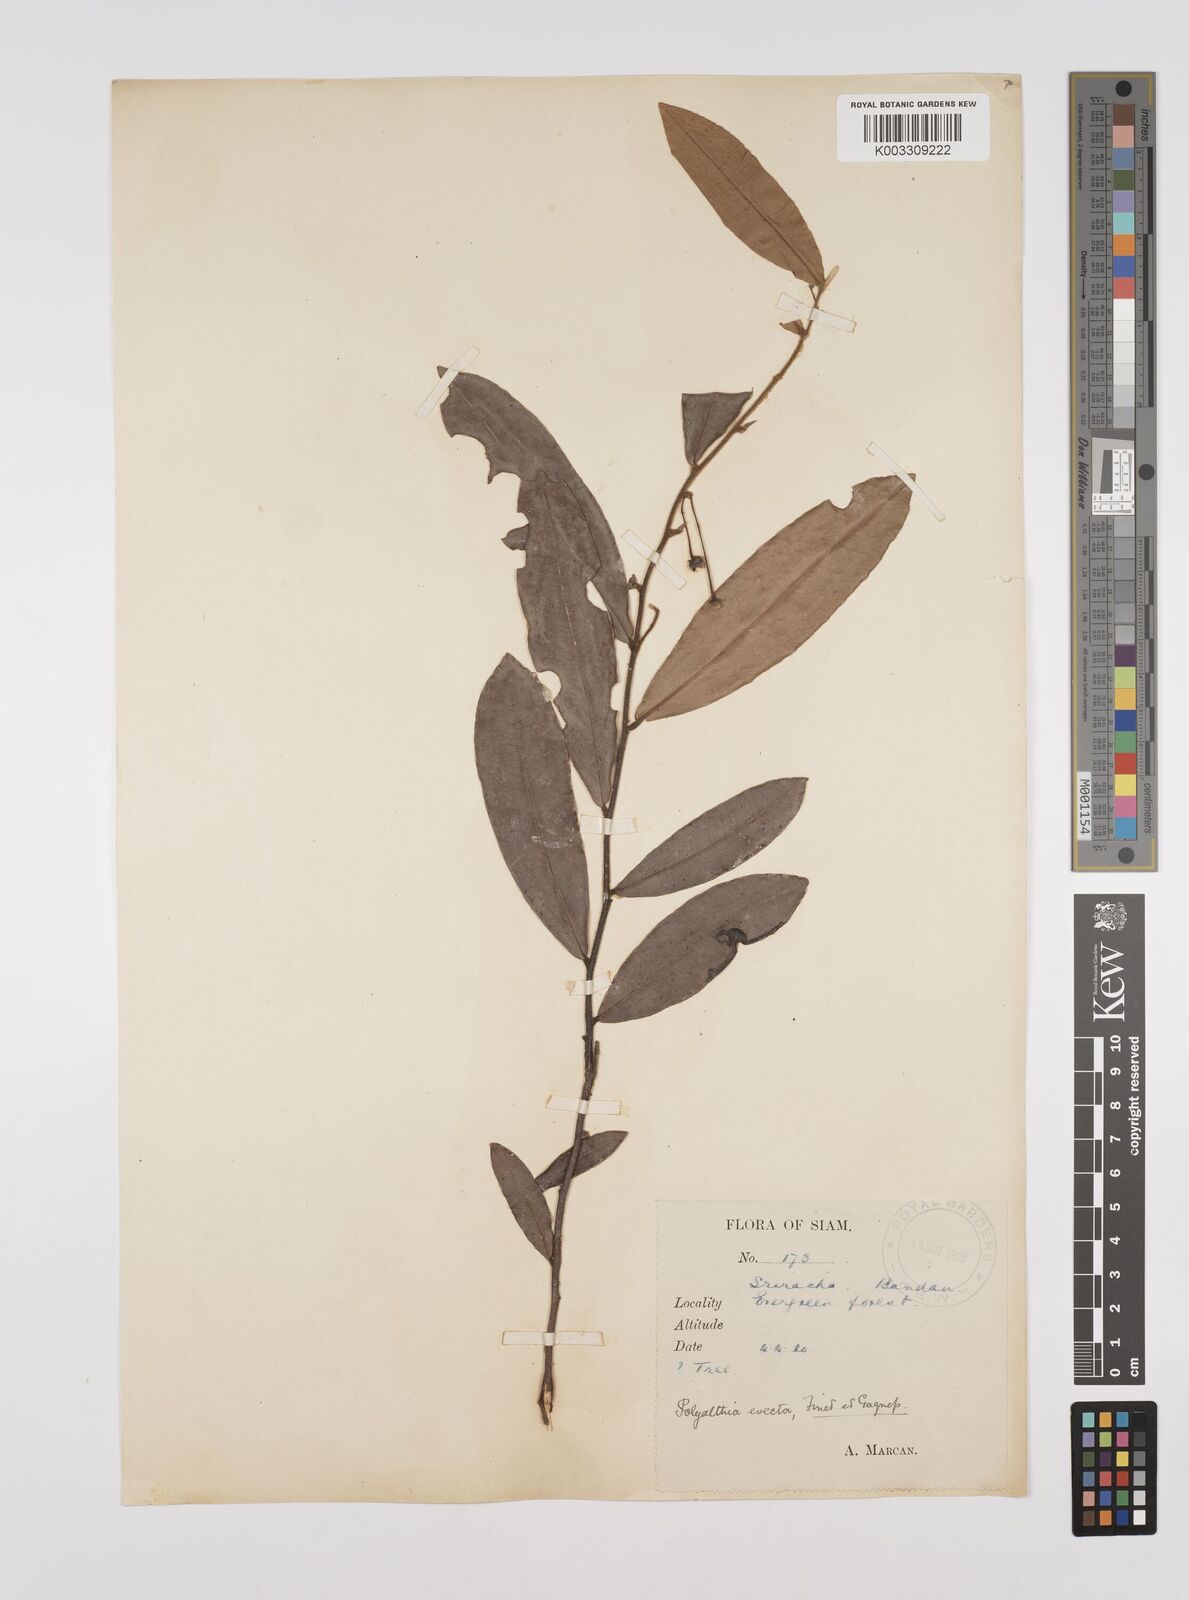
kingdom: Plantae
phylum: Tracheophyta
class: Magnoliopsida
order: Magnoliales
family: Annonaceae
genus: Polyalthia
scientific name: Polyalthia evecta
